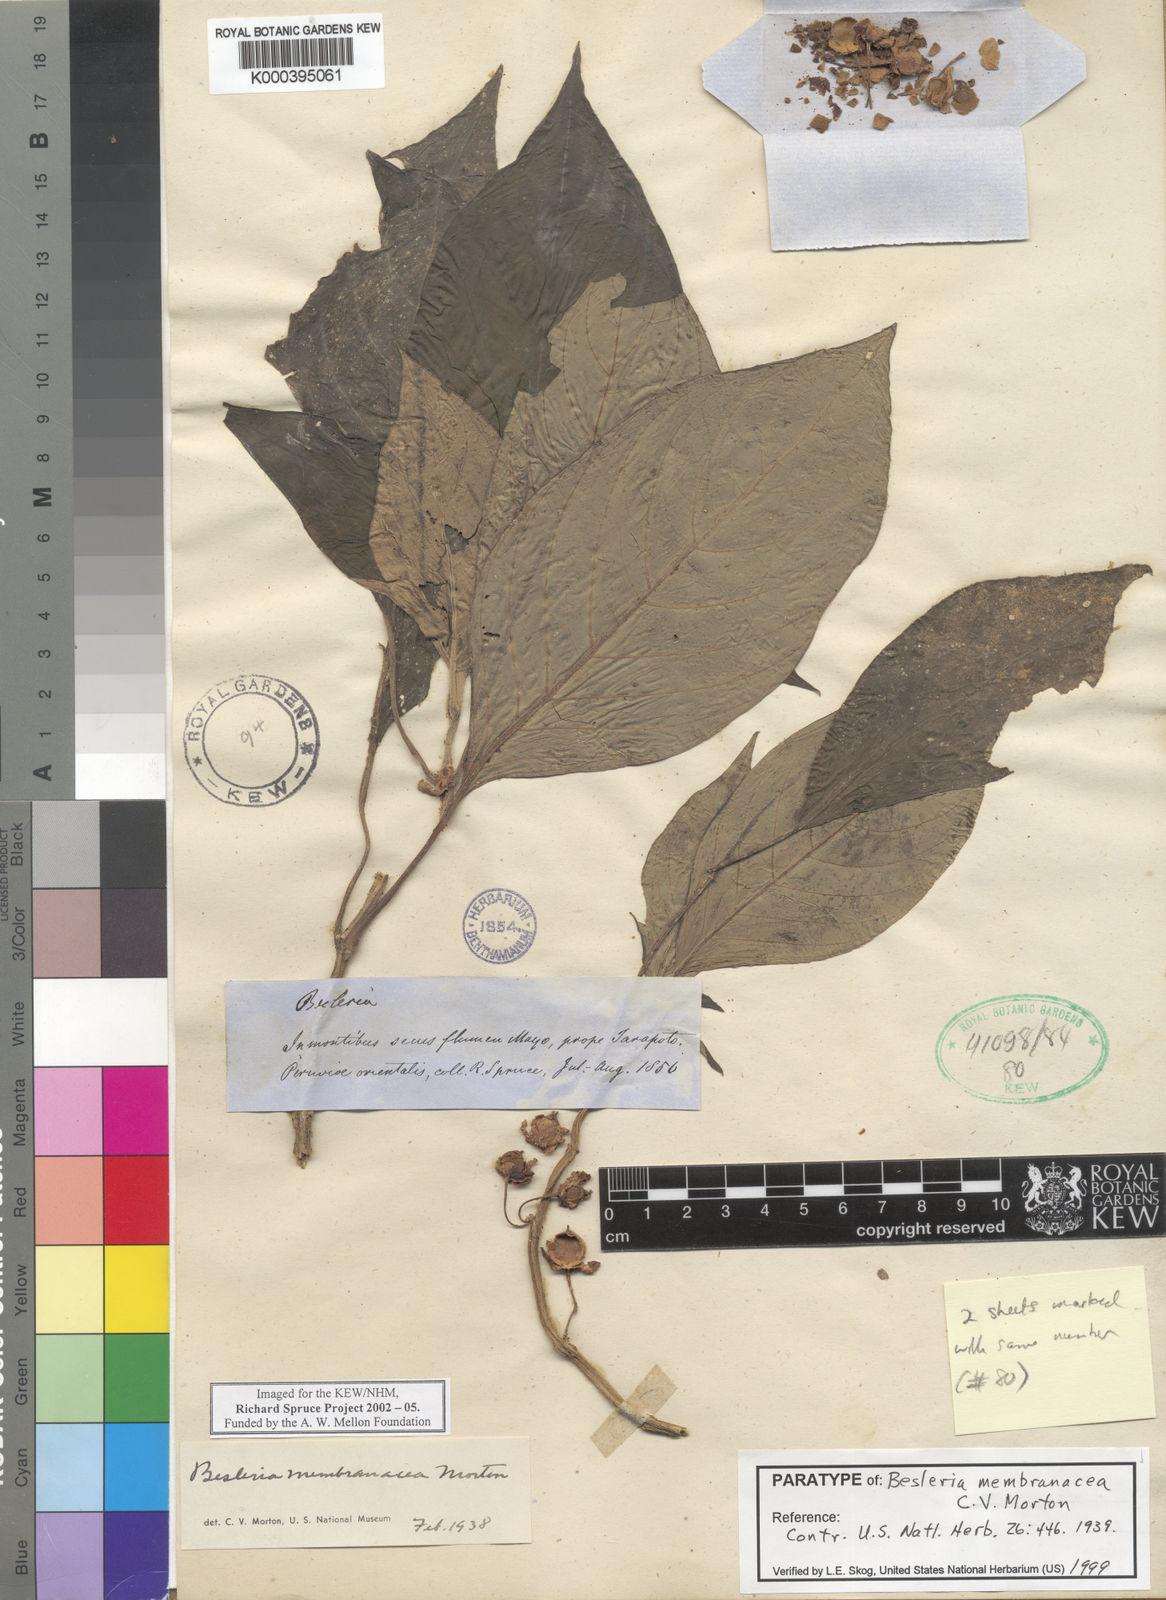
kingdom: Plantae
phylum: Tracheophyta
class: Magnoliopsida
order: Lamiales
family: Gesneriaceae
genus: Besleria
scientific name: Besleria membranacea
